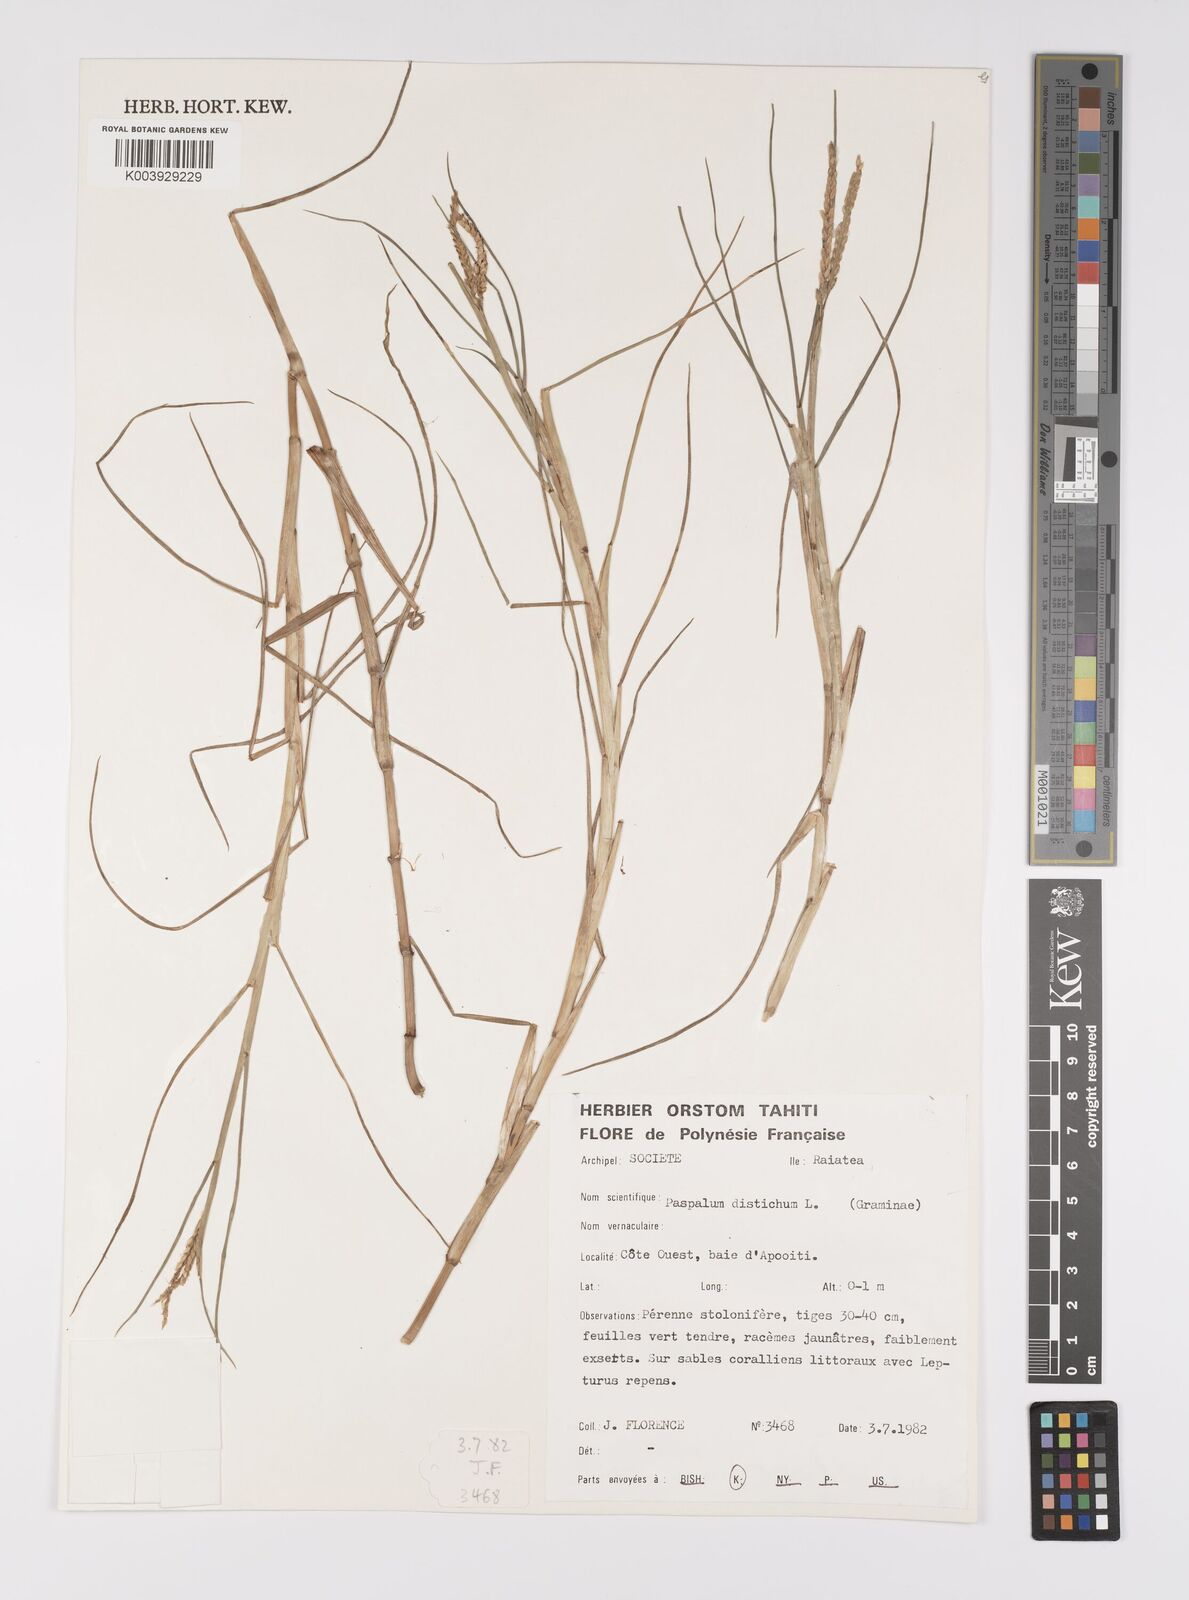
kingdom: Plantae
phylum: Tracheophyta
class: Liliopsida
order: Poales
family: Poaceae
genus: Paspalum
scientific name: Paspalum vaginatum
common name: Seashore paspalum
